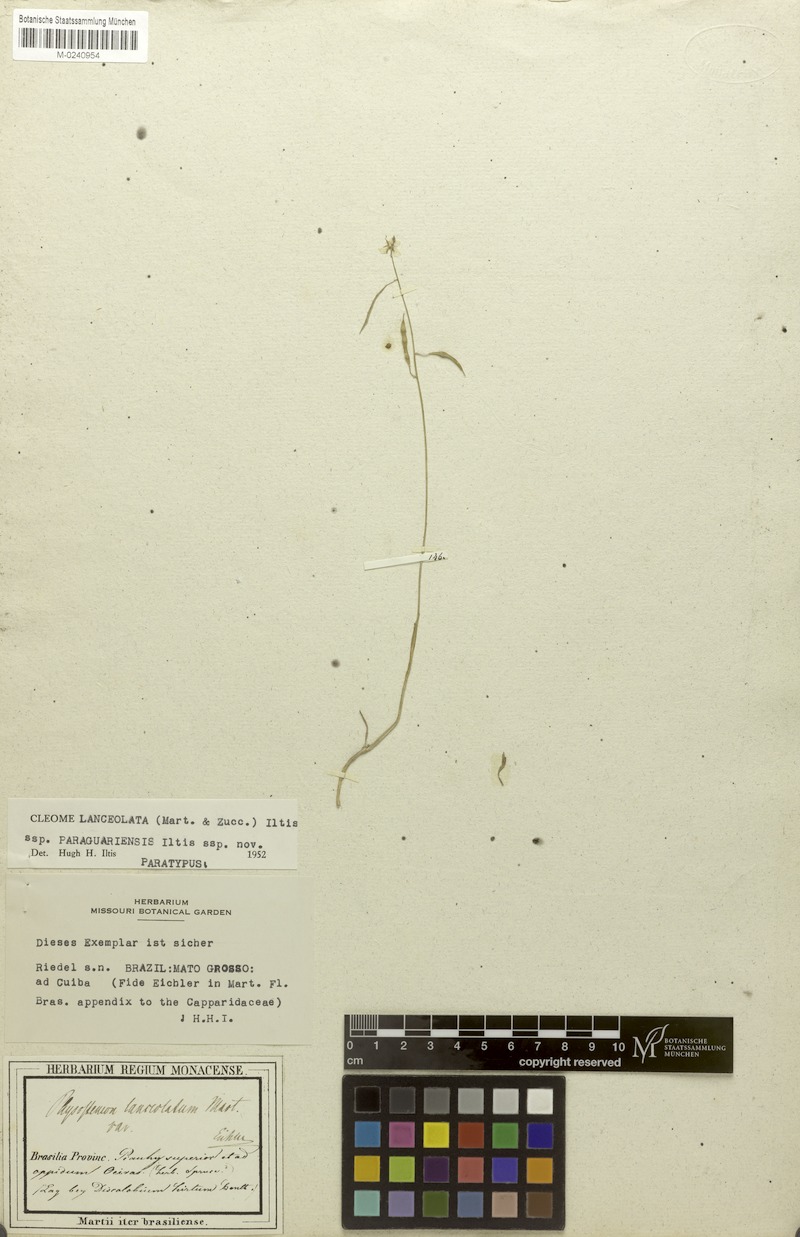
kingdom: Plantae
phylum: Tracheophyta
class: Magnoliopsida
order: Brassicales
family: Cleomaceae
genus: Physostemon
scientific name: Physostemon lanceolatus
